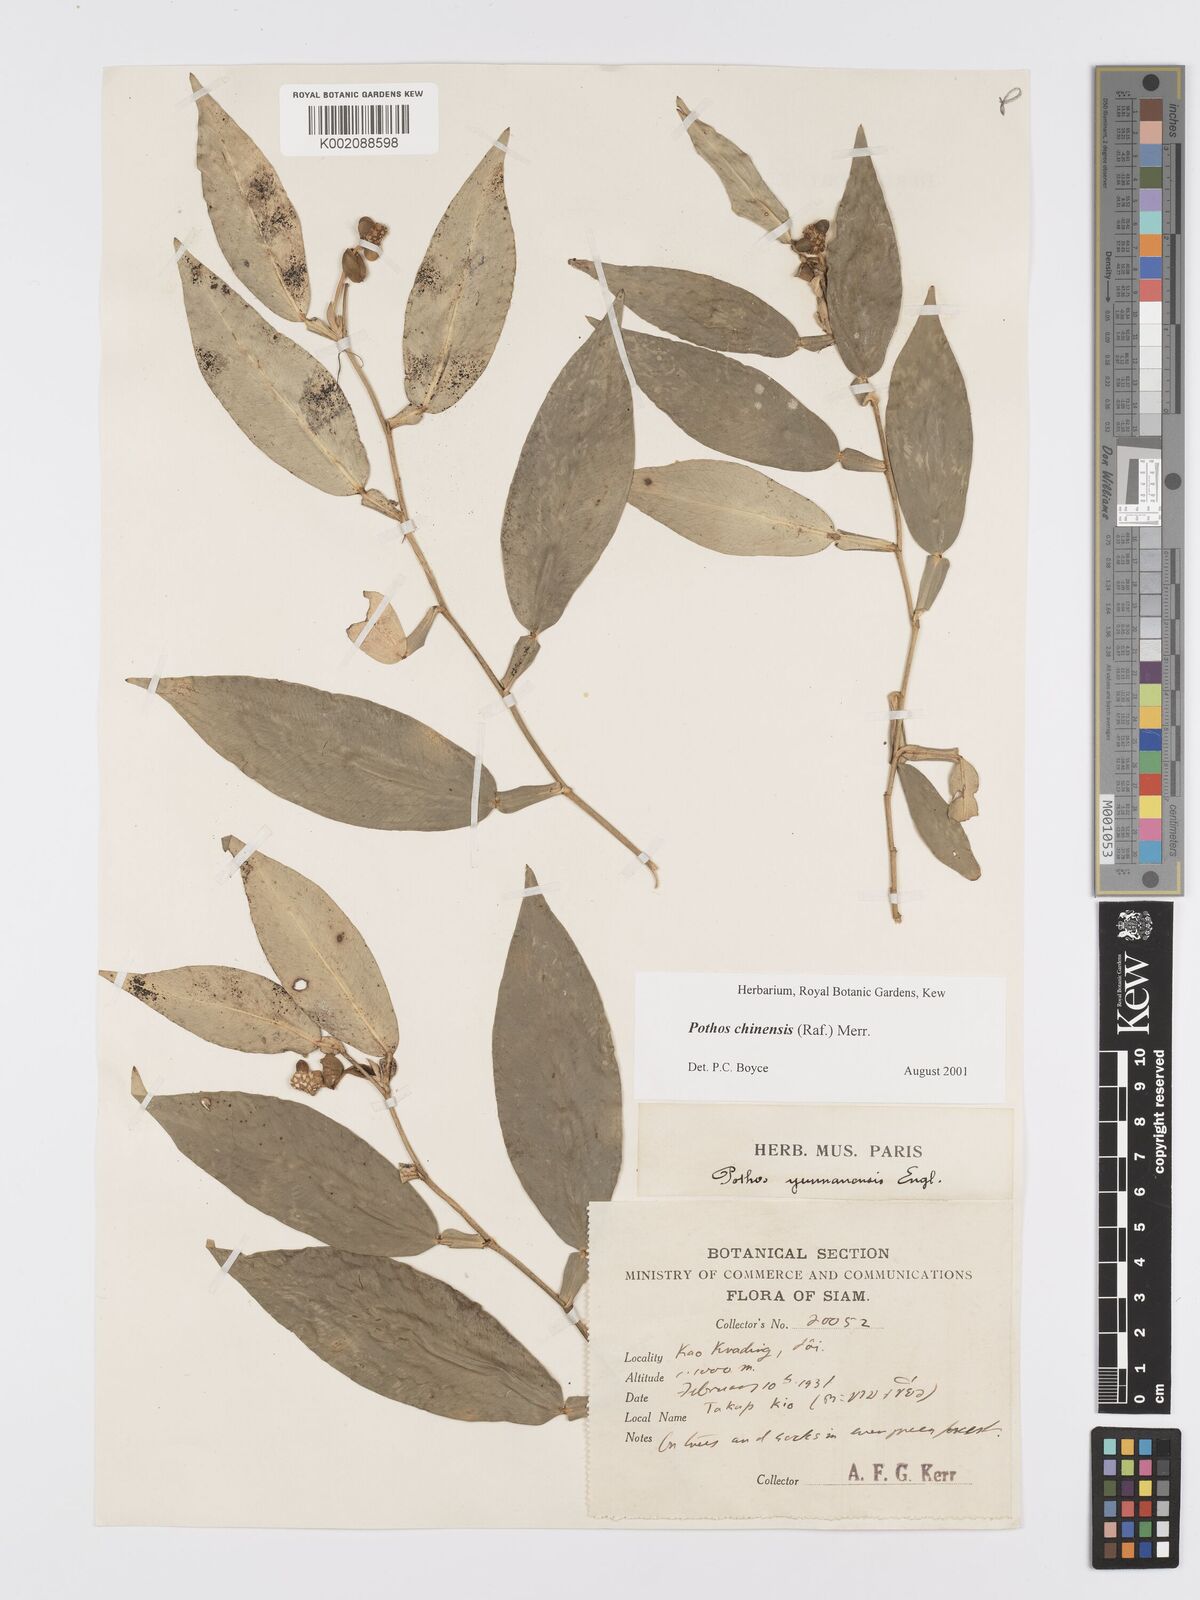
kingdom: Plantae
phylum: Tracheophyta
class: Liliopsida
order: Alismatales
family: Araceae
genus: Pothos
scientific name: Pothos chinensis
